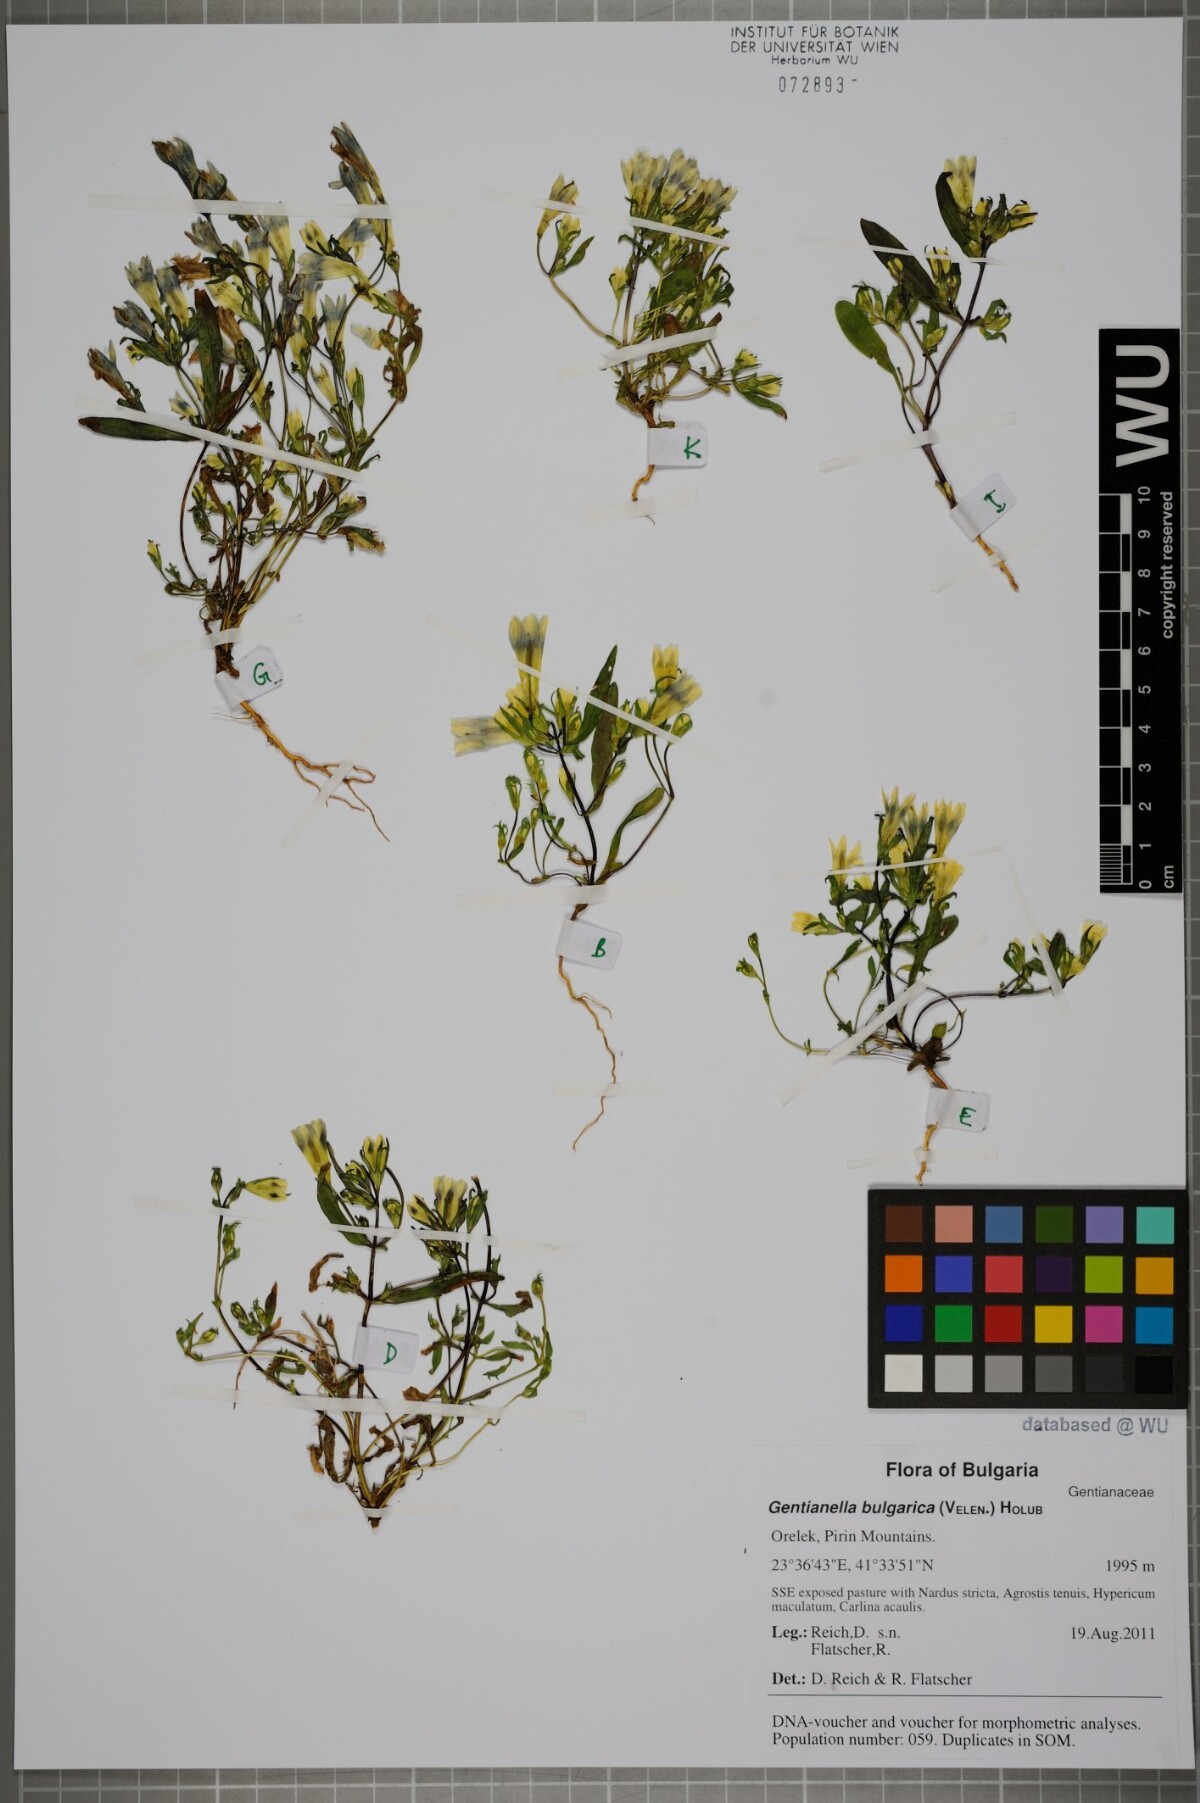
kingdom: Plantae
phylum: Tracheophyta
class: Magnoliopsida
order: Gentianales
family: Gentianaceae
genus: Gentianella
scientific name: Gentianella bulgarica
